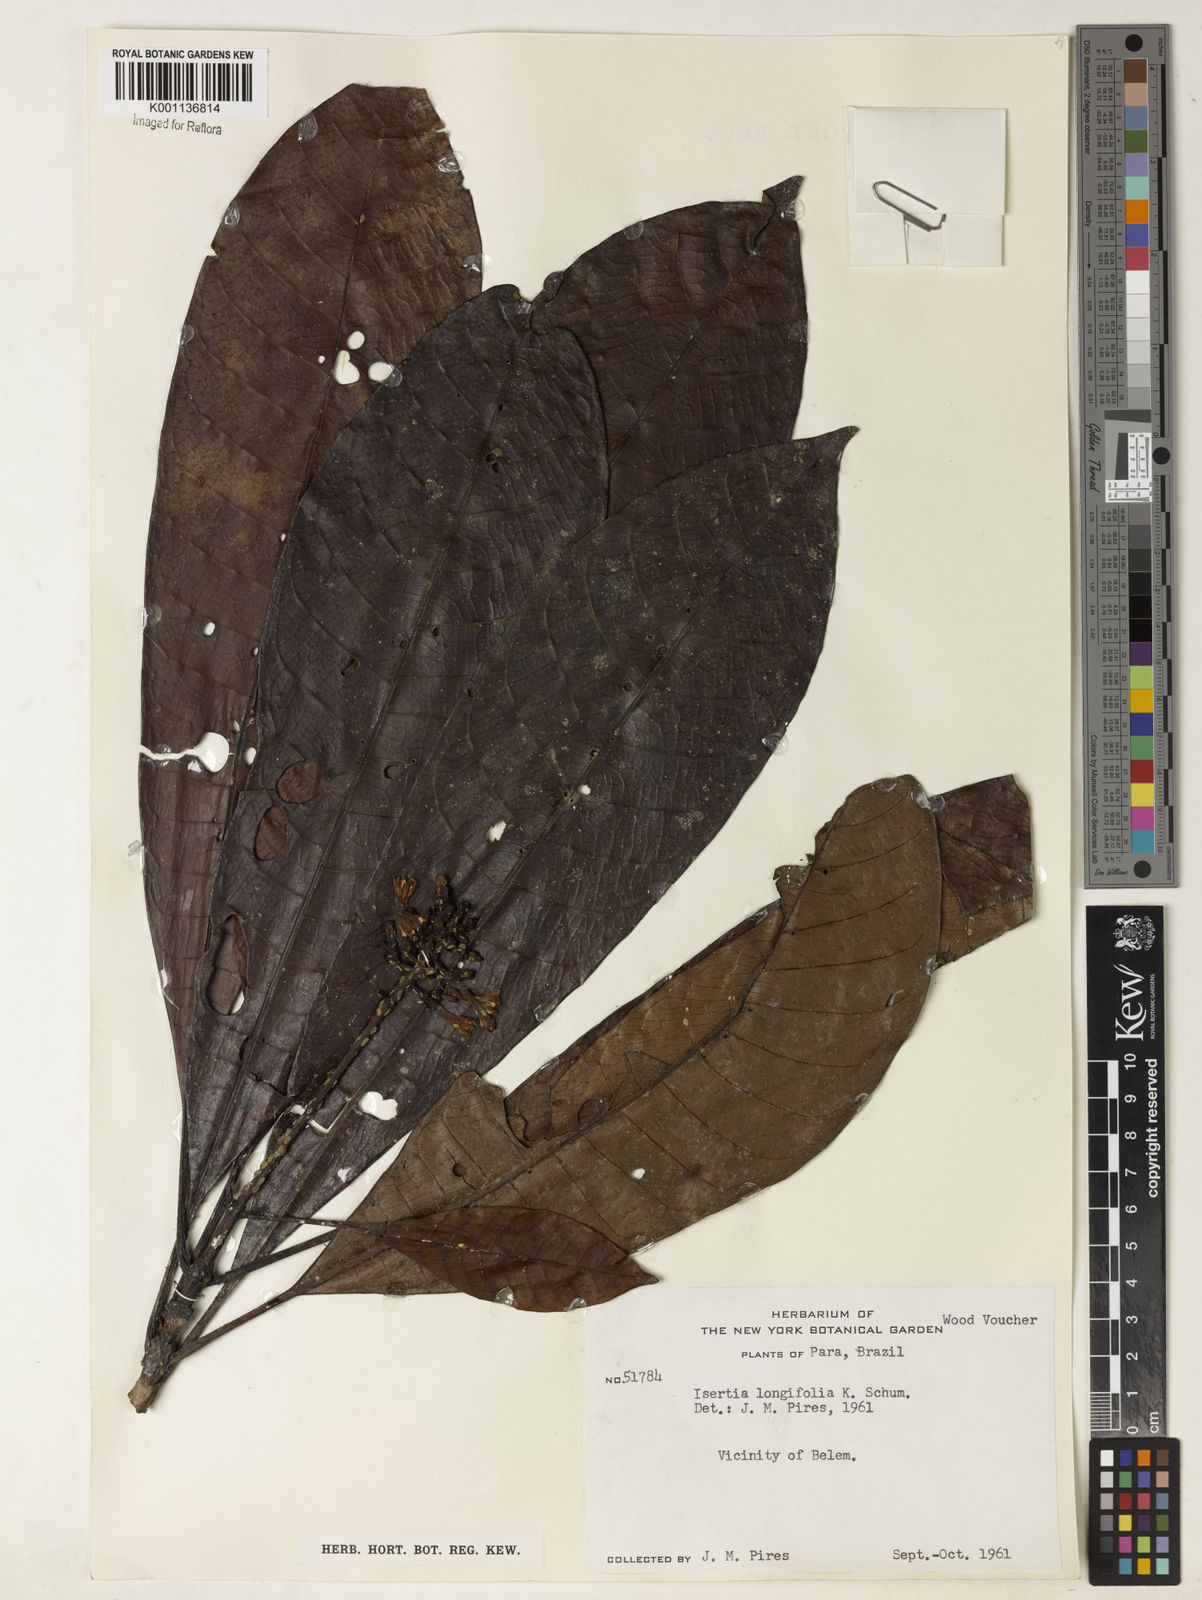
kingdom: Plantae
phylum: Tracheophyta
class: Magnoliopsida
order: Gentianales
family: Rubiaceae
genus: Isertia
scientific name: Isertia longifolia
